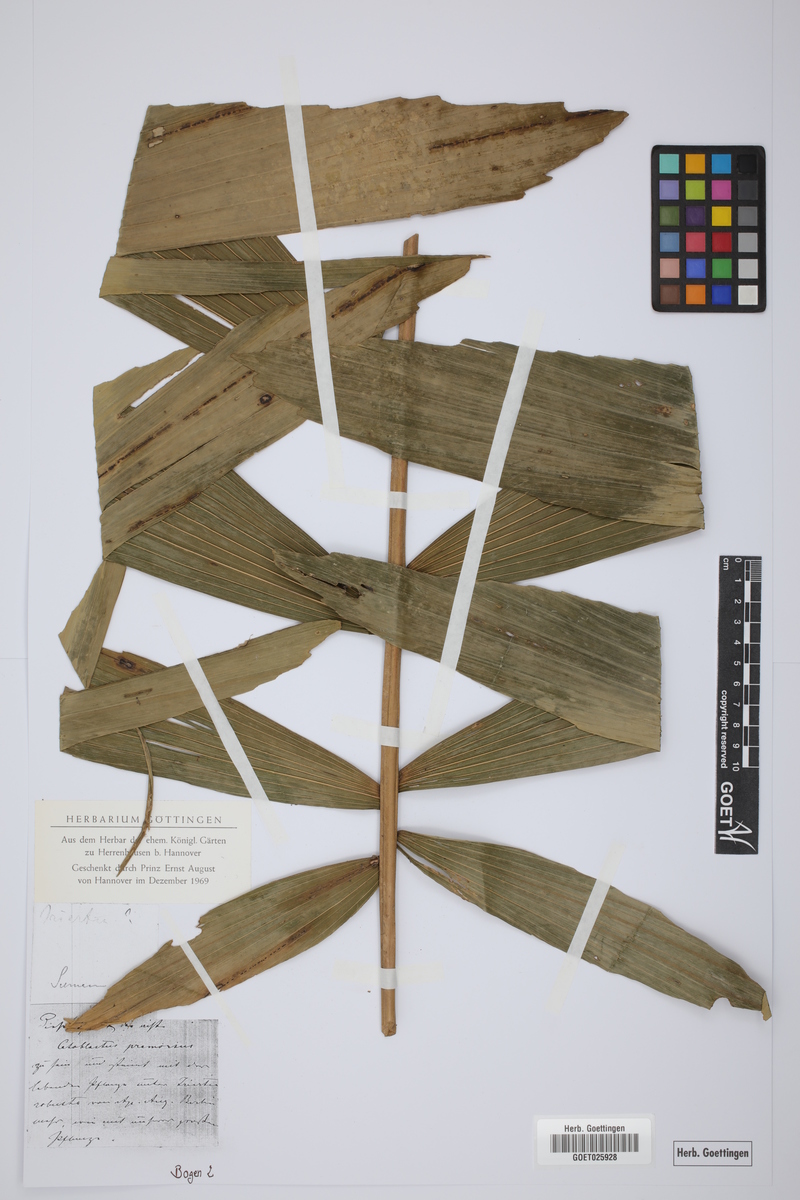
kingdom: Plantae
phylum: Tracheophyta
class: Liliopsida
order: Arecales
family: Arecaceae
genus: Wettinia
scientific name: Wettinia praemorsa
